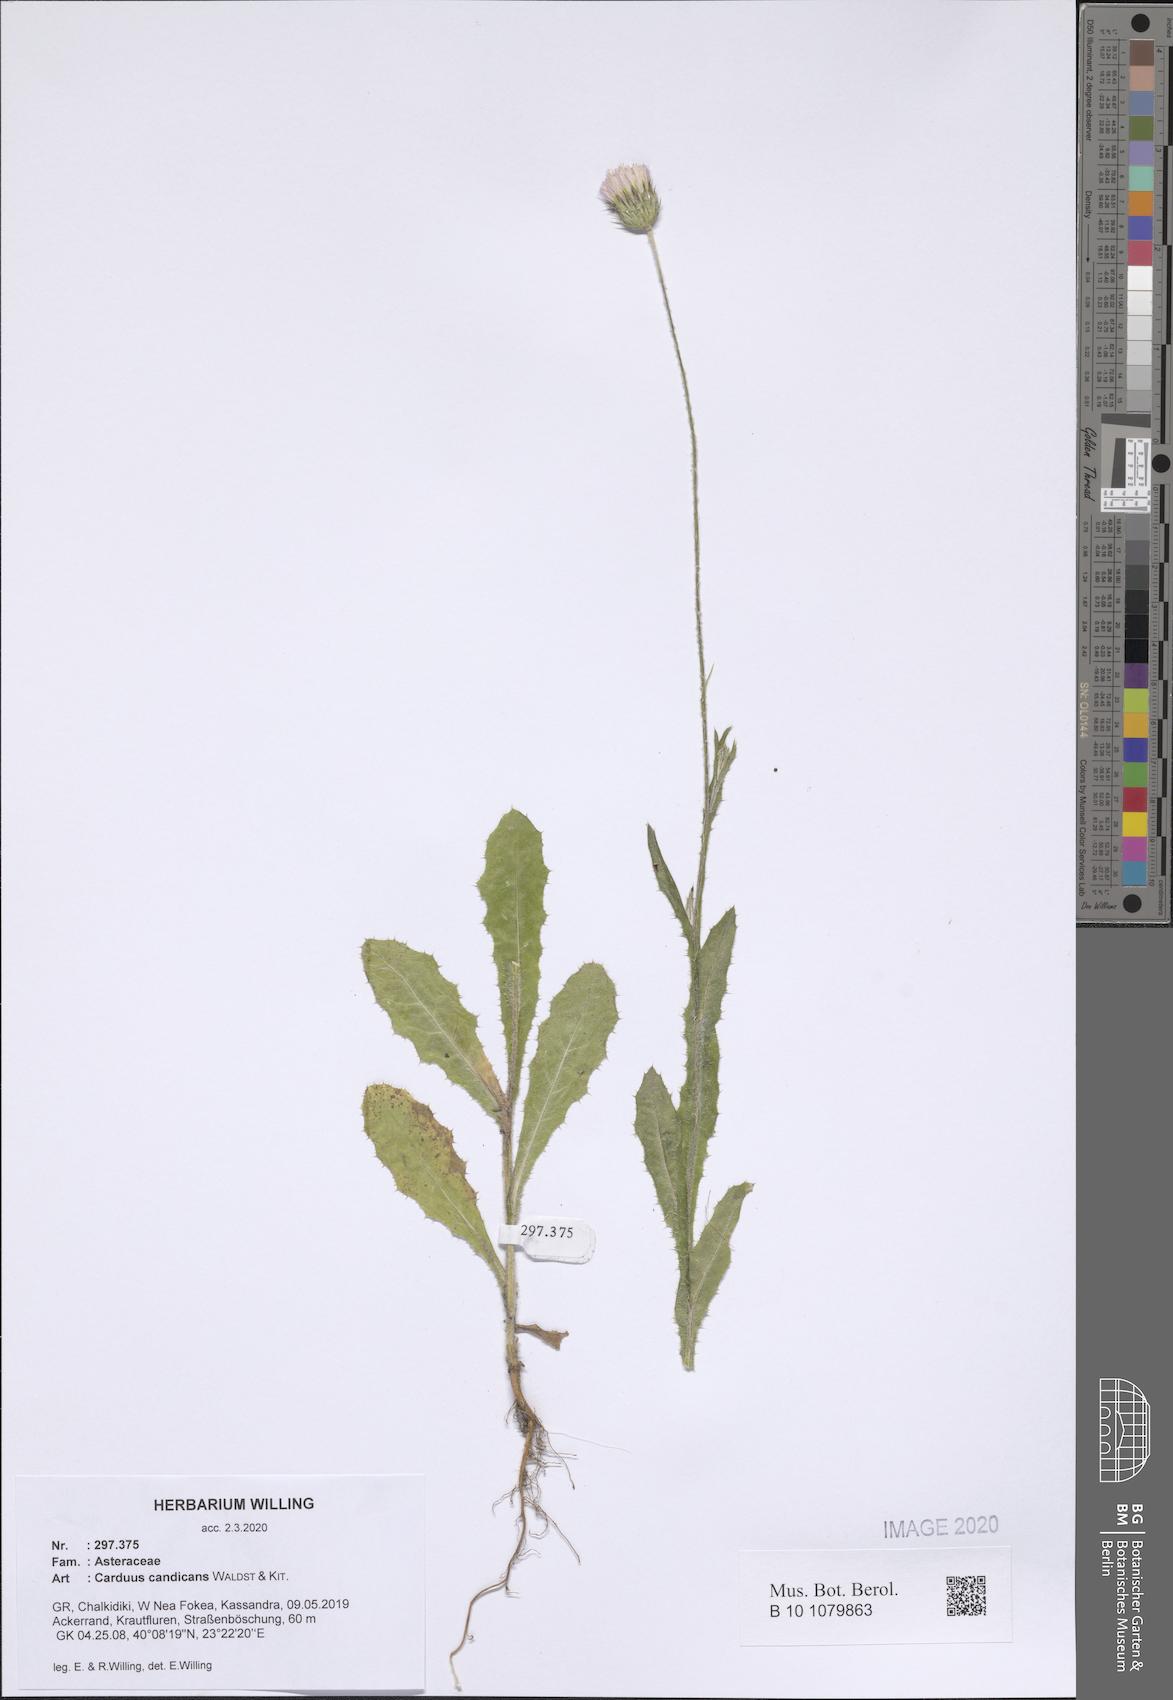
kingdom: Plantae
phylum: Tracheophyta
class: Magnoliopsida
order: Asterales
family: Asteraceae
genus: Carduus
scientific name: Carduus candicans
